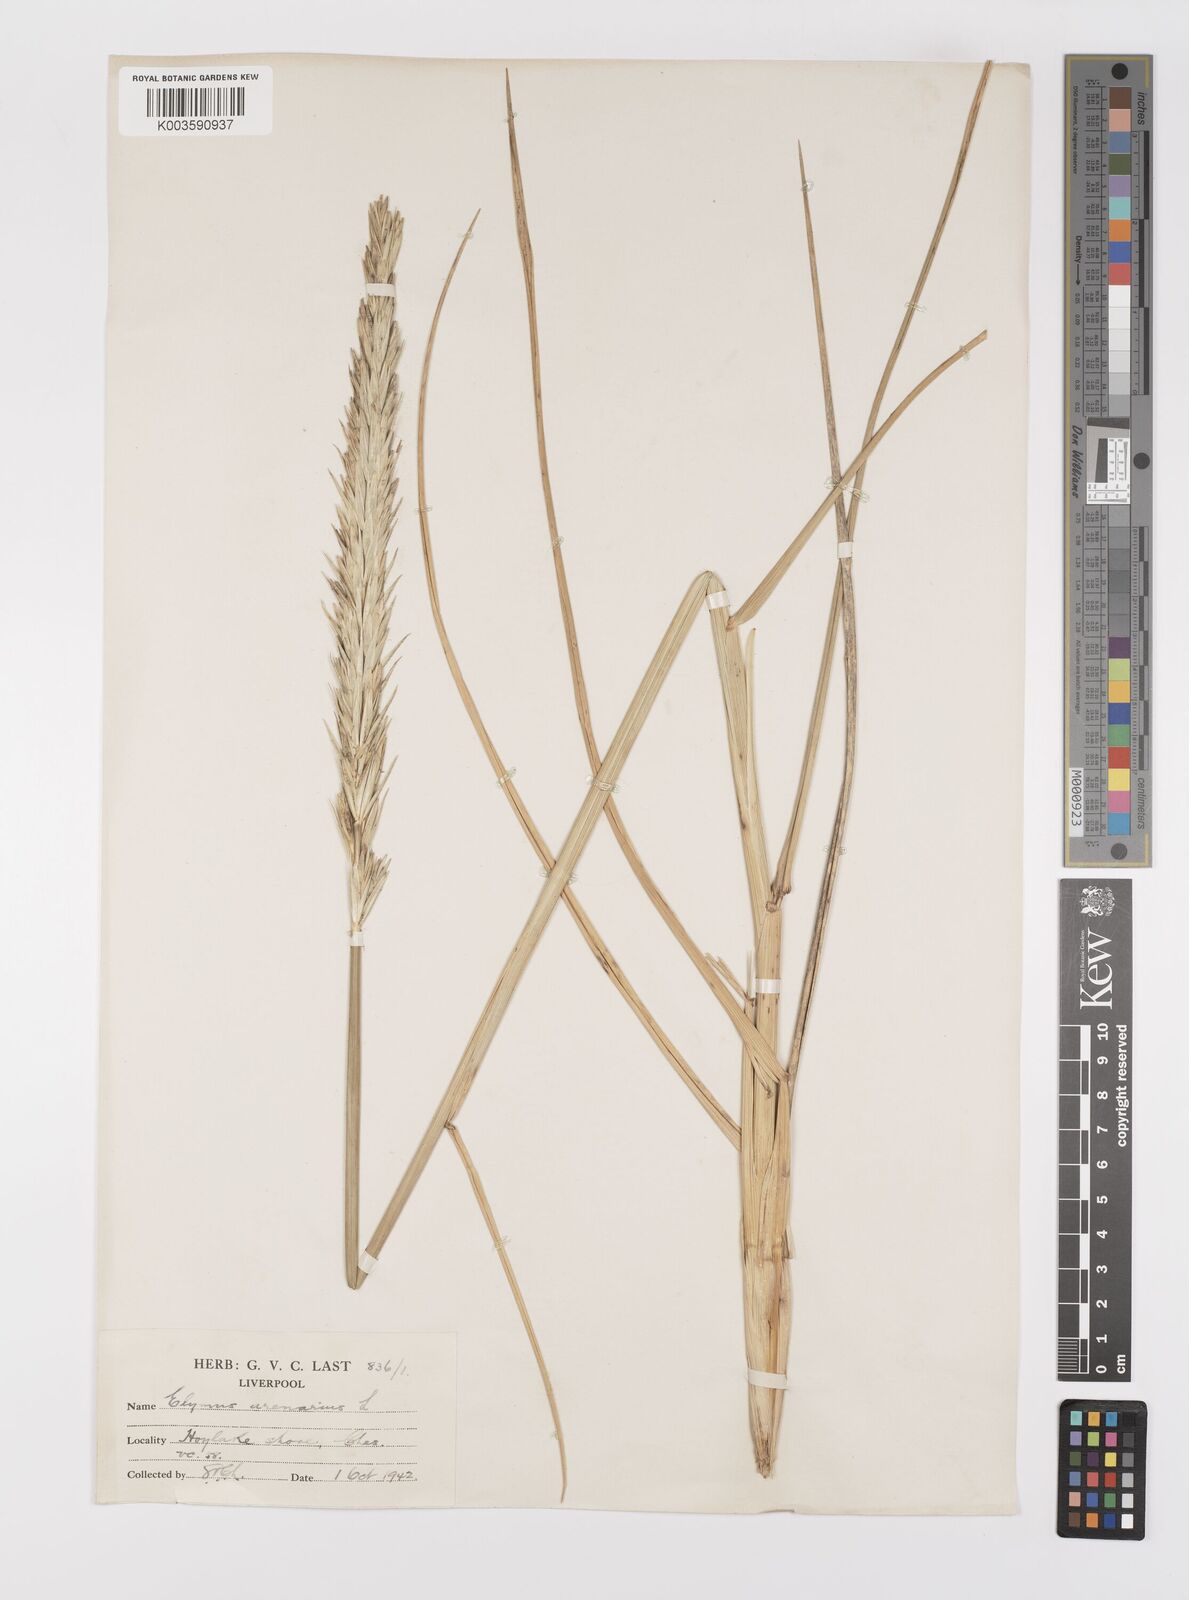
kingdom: Plantae
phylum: Tracheophyta
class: Liliopsida
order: Poales
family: Poaceae
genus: Leymus
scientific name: Leymus arenarius
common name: Lyme-grass
